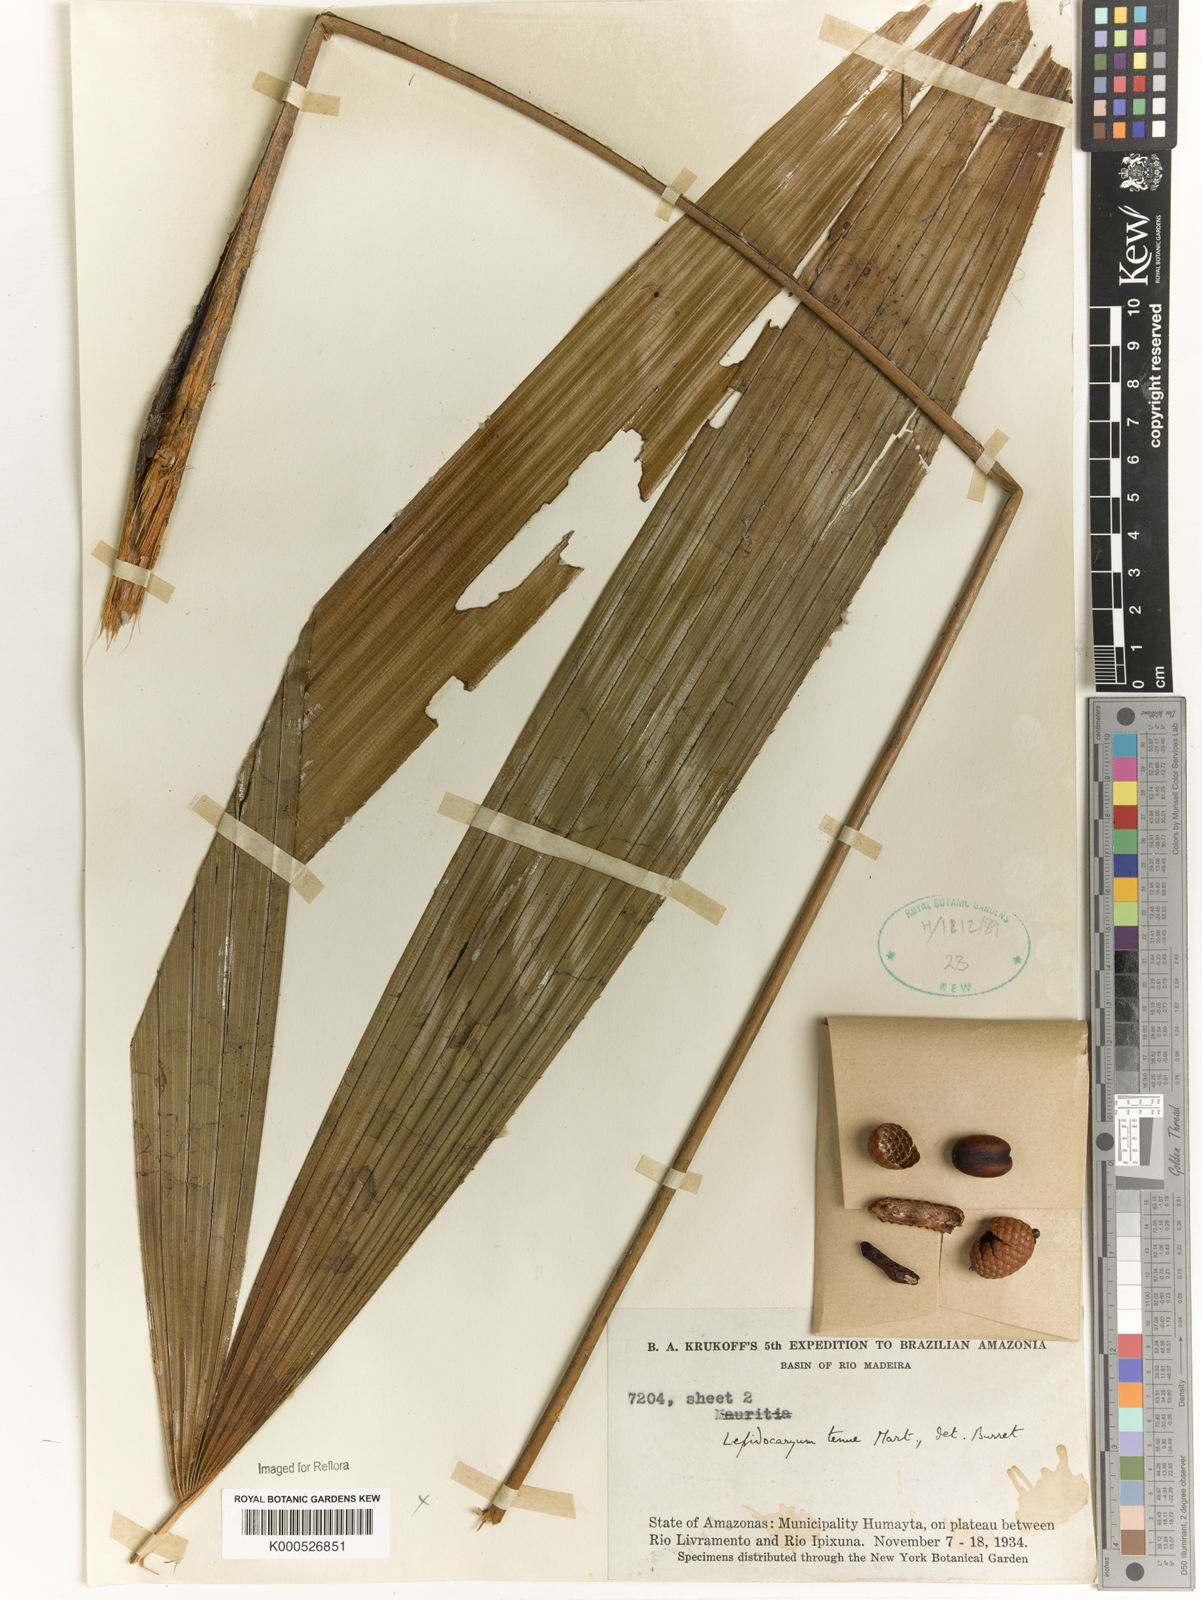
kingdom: Plantae
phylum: Tracheophyta
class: Liliopsida
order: Arecales
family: Arecaceae
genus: Lepidocaryum
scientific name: Lepidocaryum tenue
